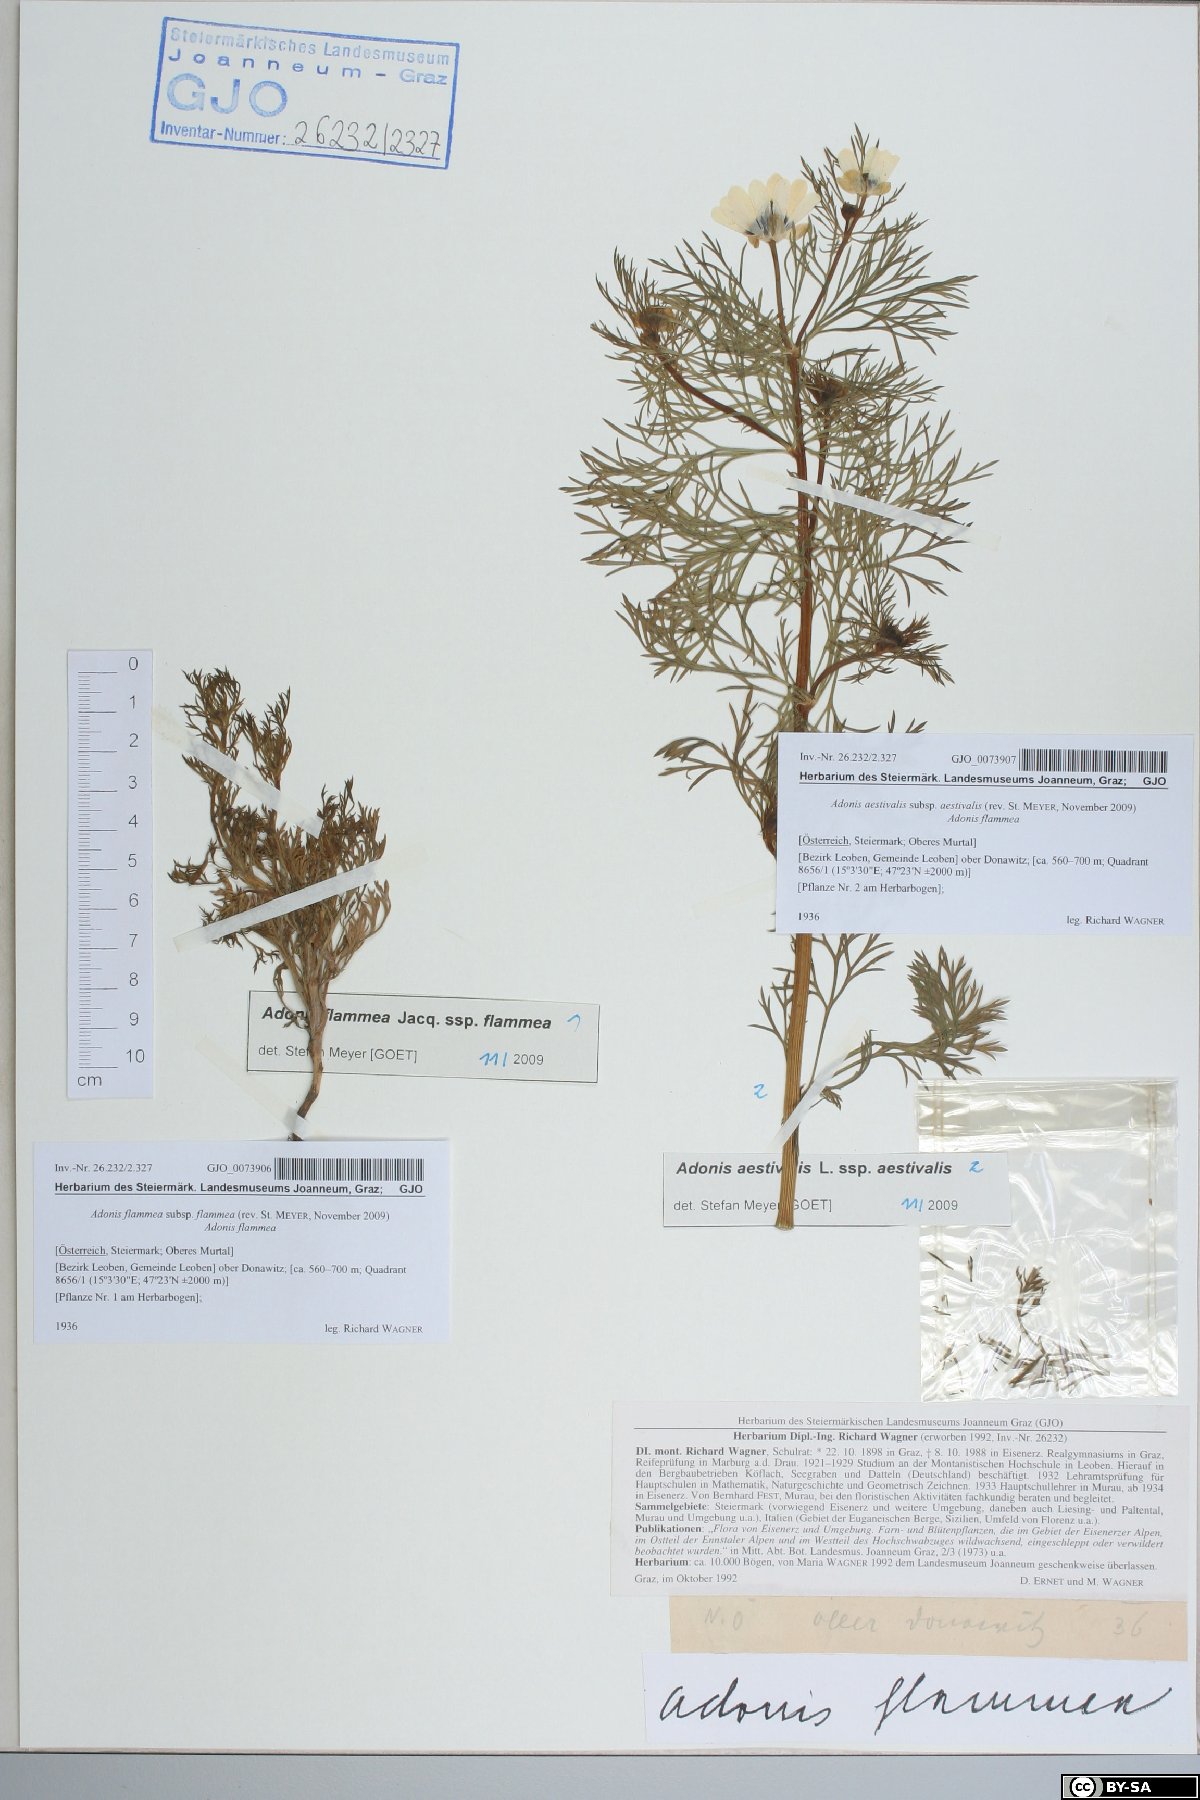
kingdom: Plantae
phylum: Tracheophyta
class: Magnoliopsida
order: Ranunculales
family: Ranunculaceae
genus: Adonis
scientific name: Adonis flammea
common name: Large pheasant's-eye
